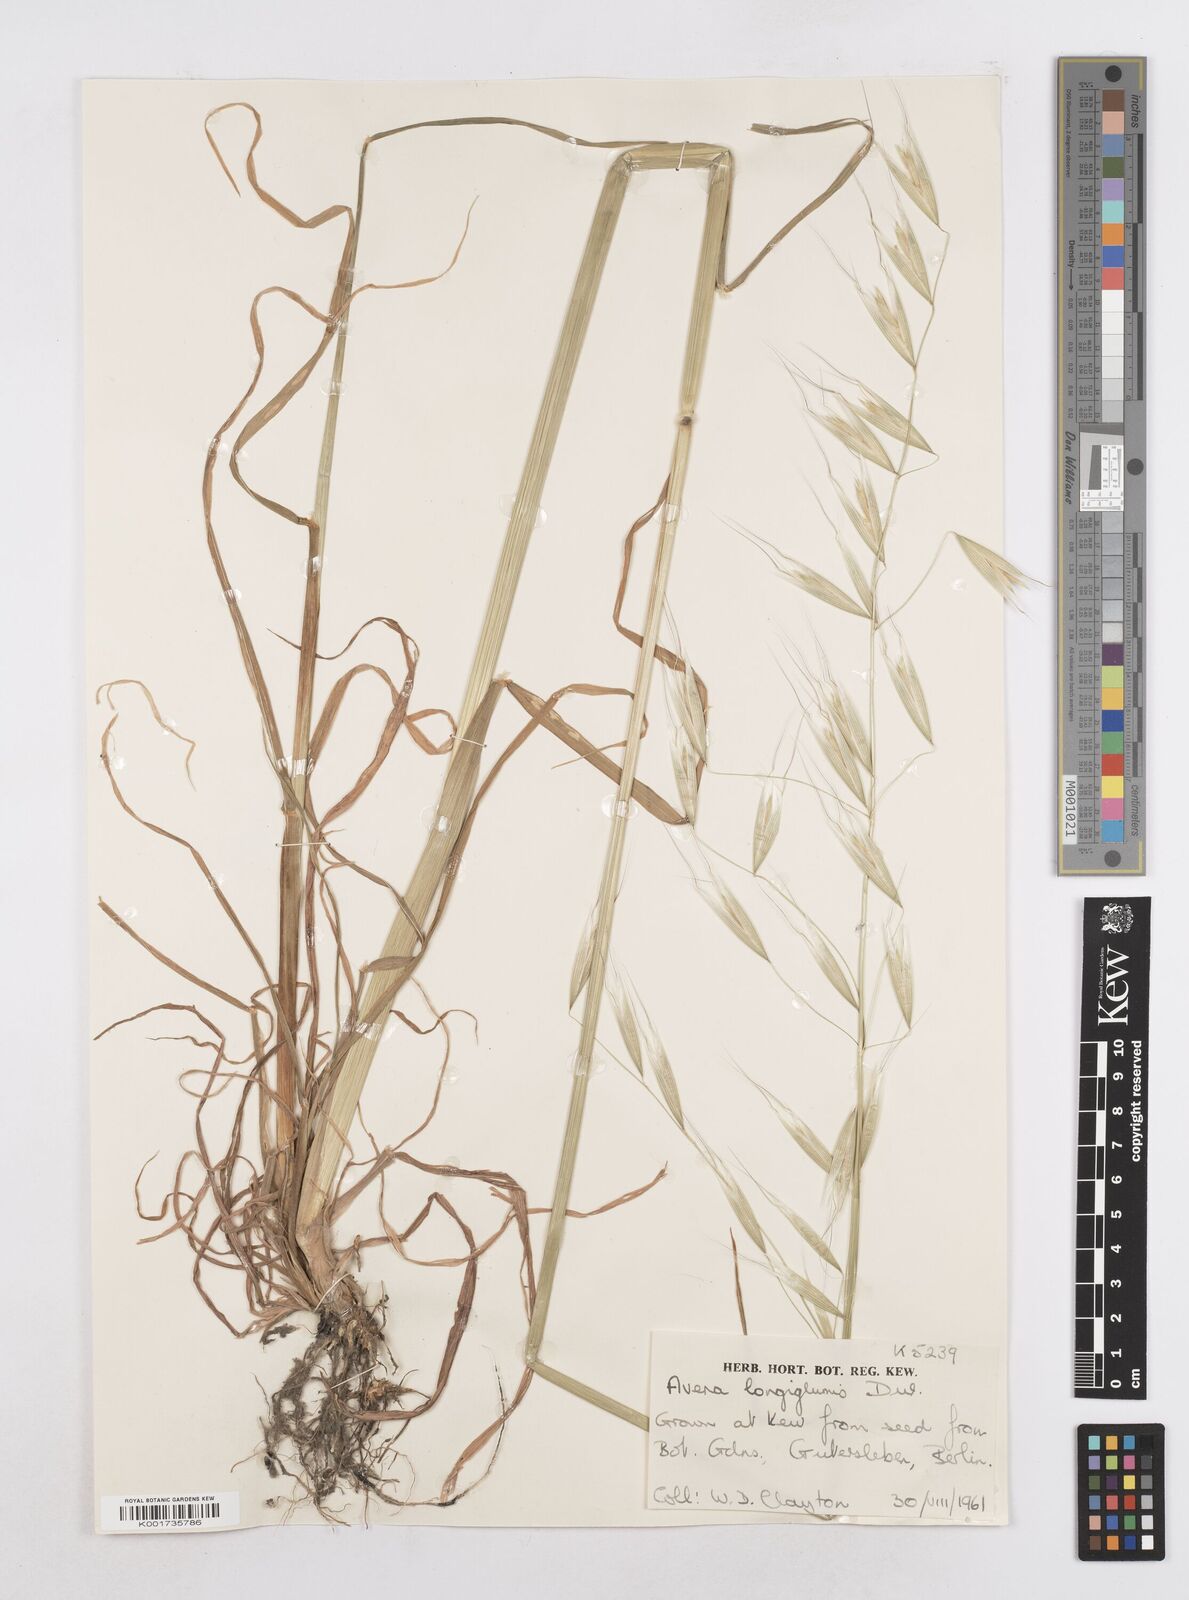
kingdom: Plantae
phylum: Tracheophyta
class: Liliopsida
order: Poales
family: Poaceae
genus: Avena
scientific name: Avena longiglumis
